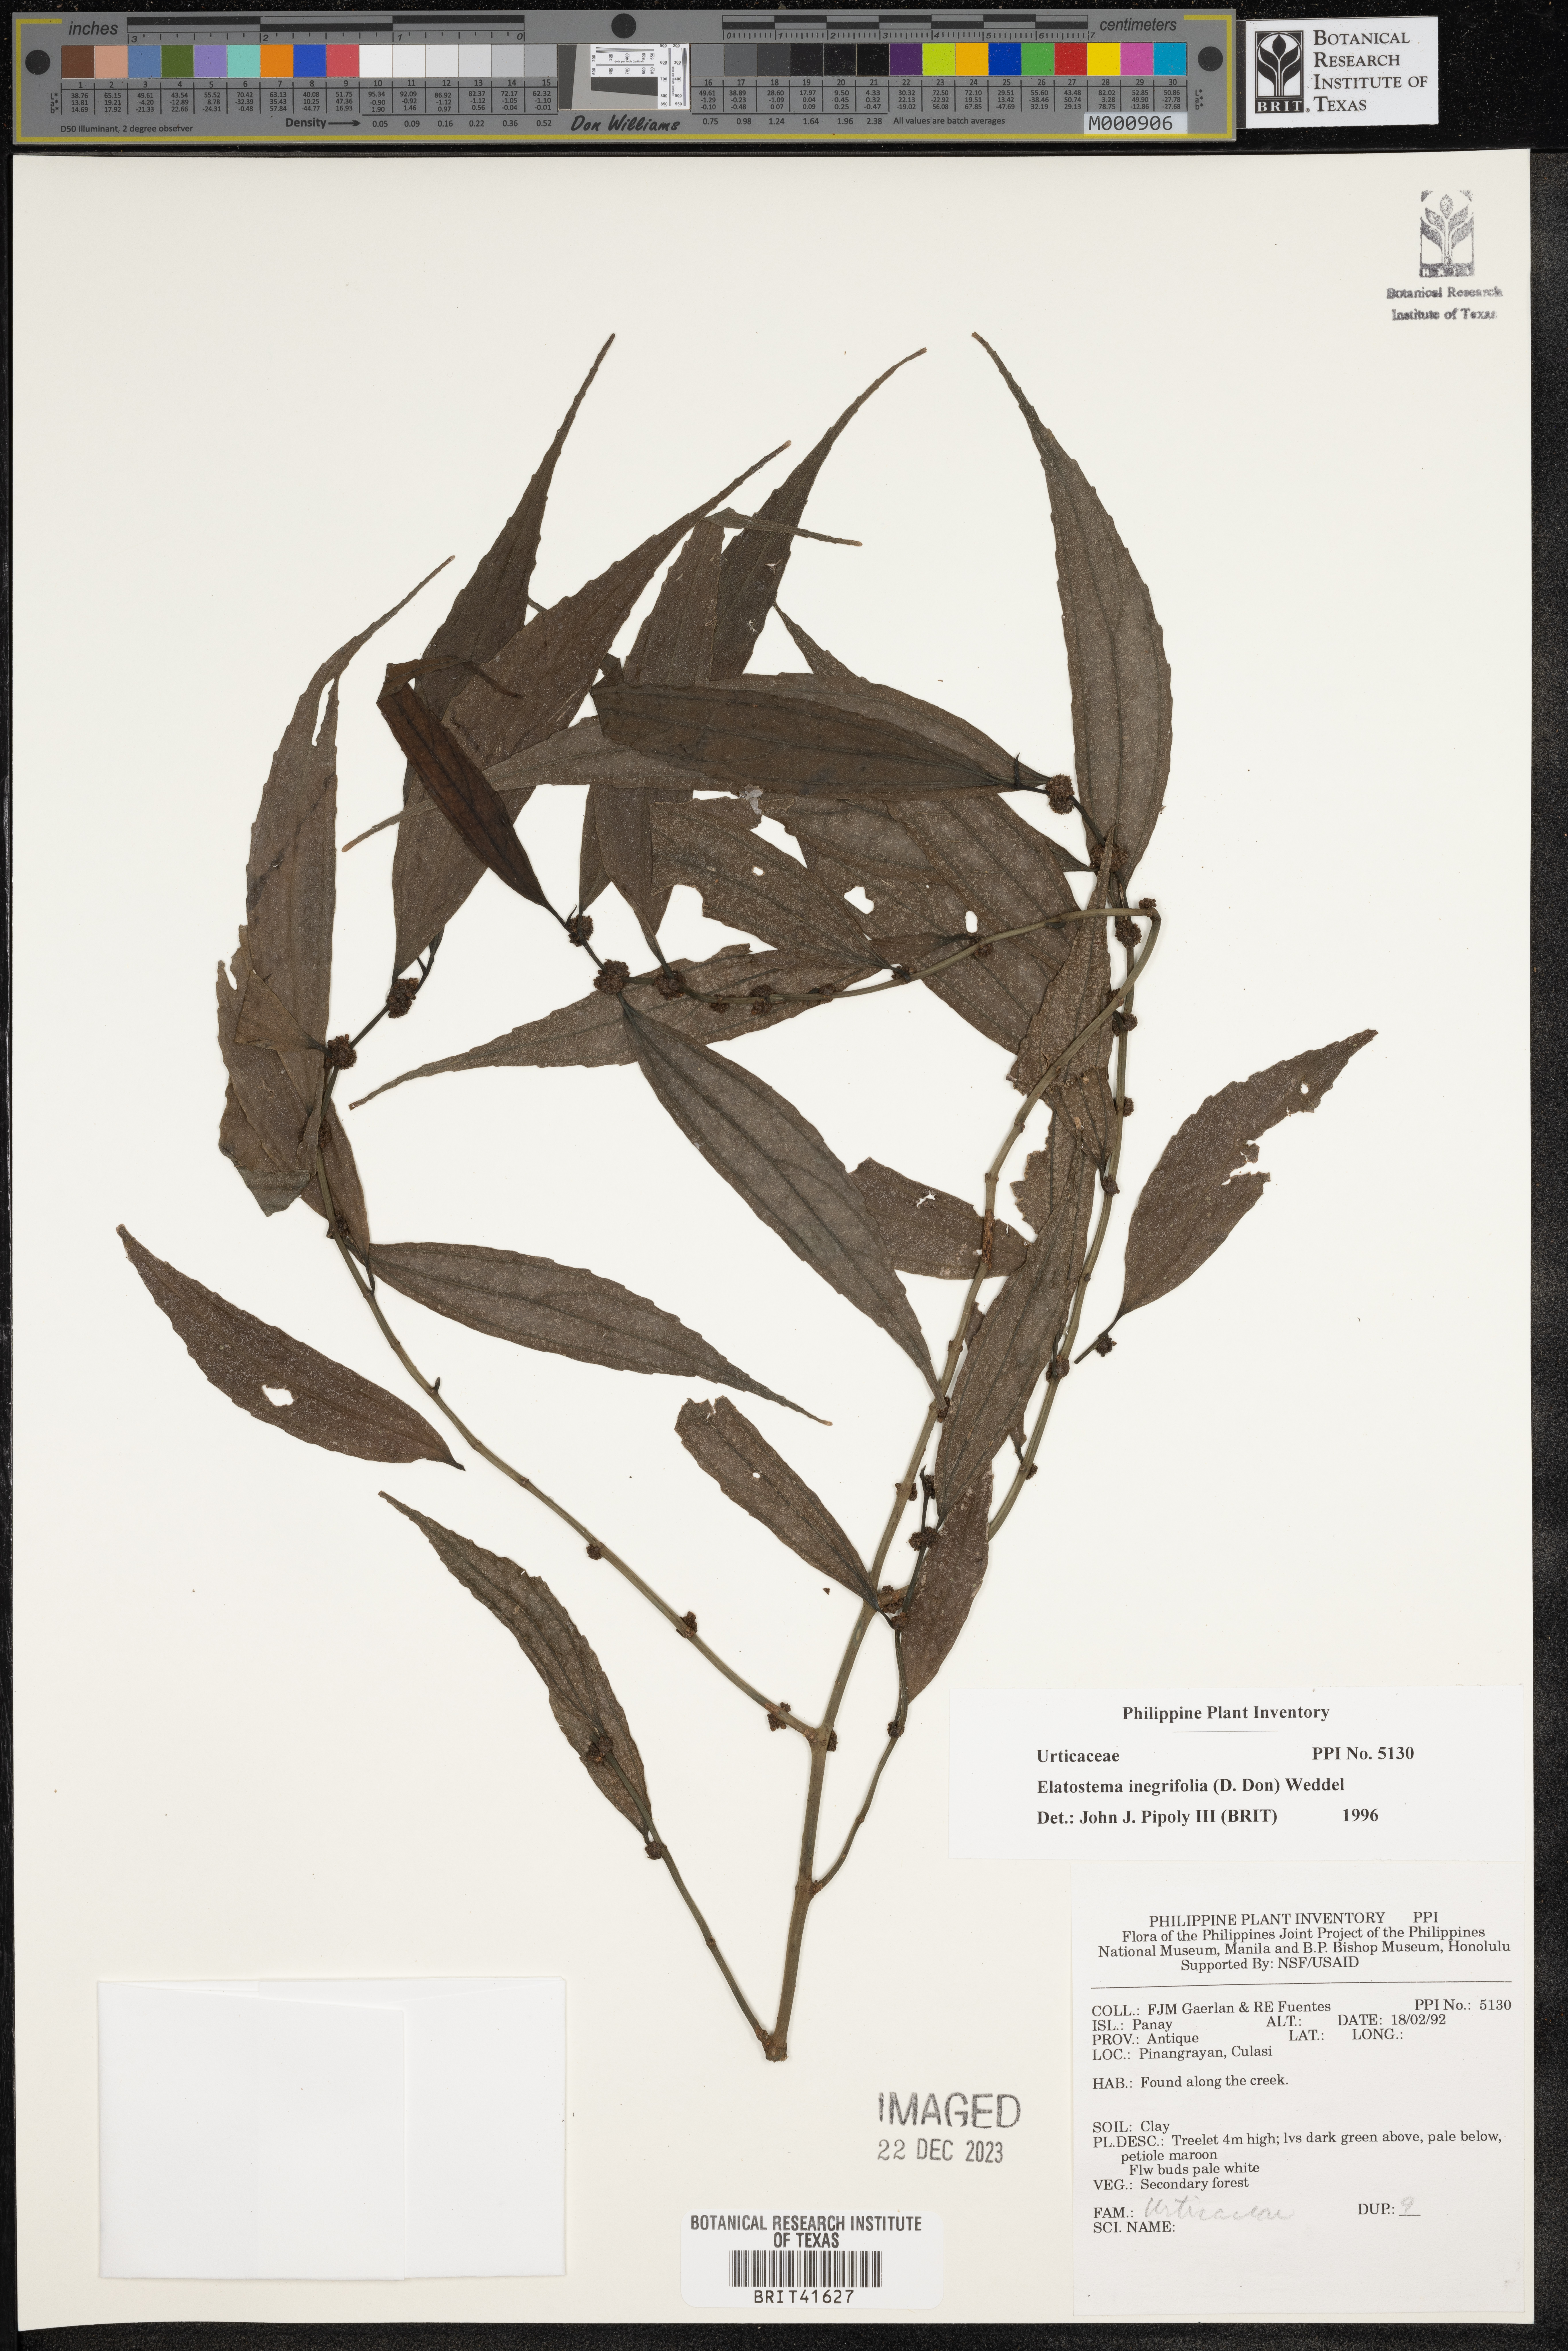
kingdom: Plantae
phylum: Tracheophyta
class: Magnoliopsida
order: Rosales
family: Urticaceae
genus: Elatostema
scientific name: Elatostema integrifolium
